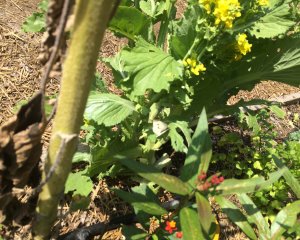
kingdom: Animalia
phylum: Arthropoda
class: Insecta
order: Lepidoptera
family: Pieridae
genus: Pieris
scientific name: Pieris rapae
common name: Cabbage White
